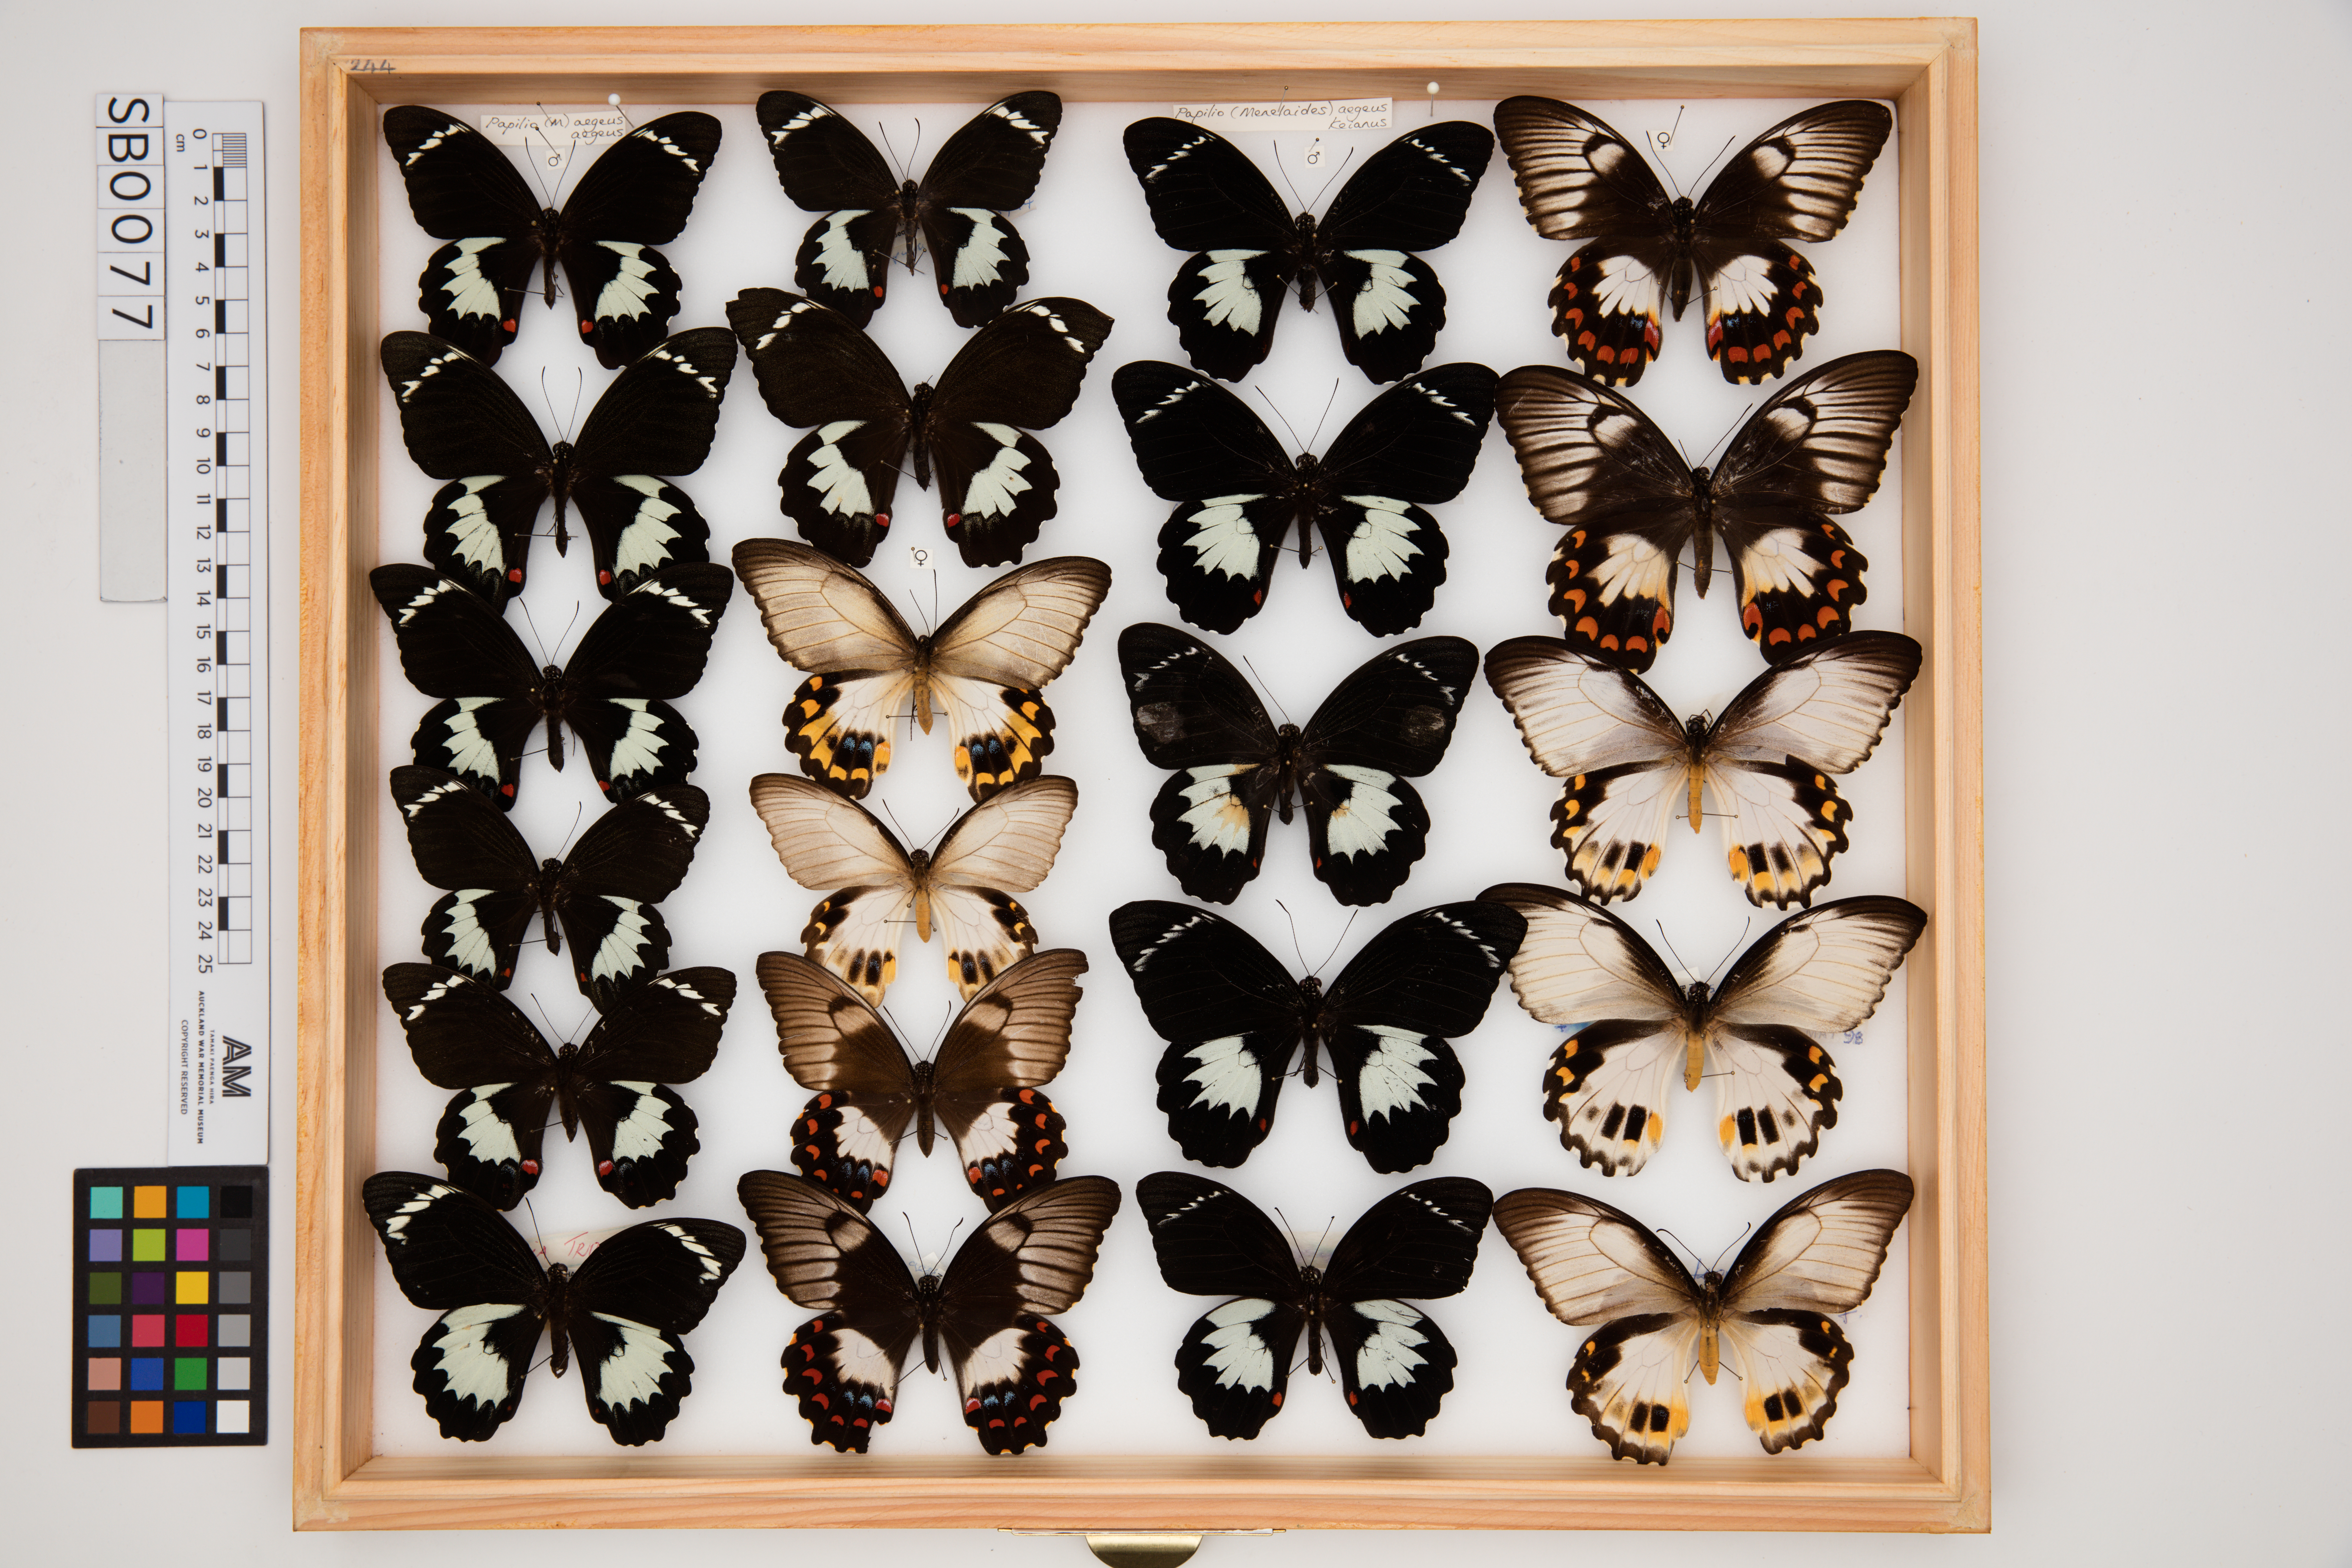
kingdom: Animalia
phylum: Arthropoda
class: Insecta
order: Lepidoptera
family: Papilionidae
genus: Papilio
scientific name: Papilio aegeus
